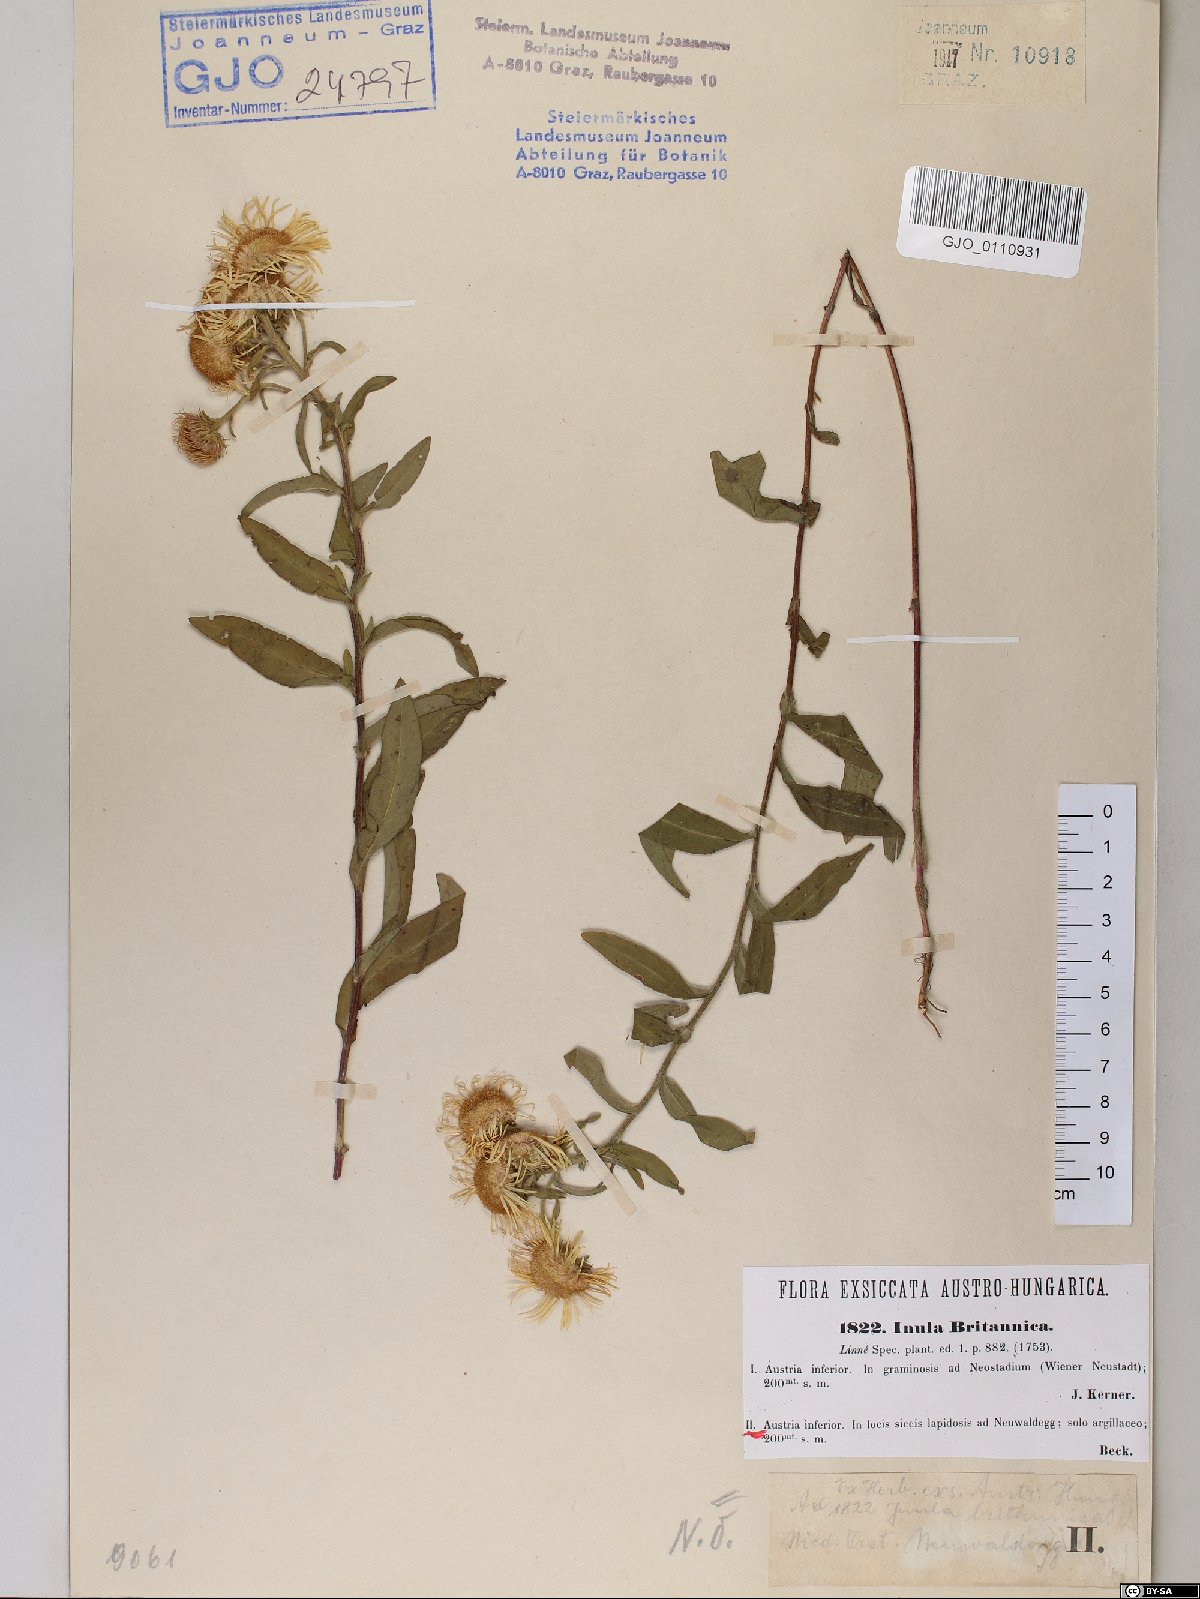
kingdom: Plantae
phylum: Tracheophyta
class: Magnoliopsida
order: Asterales
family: Asteraceae
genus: Pentanema
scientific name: Pentanema britannicum
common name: British elecampane
